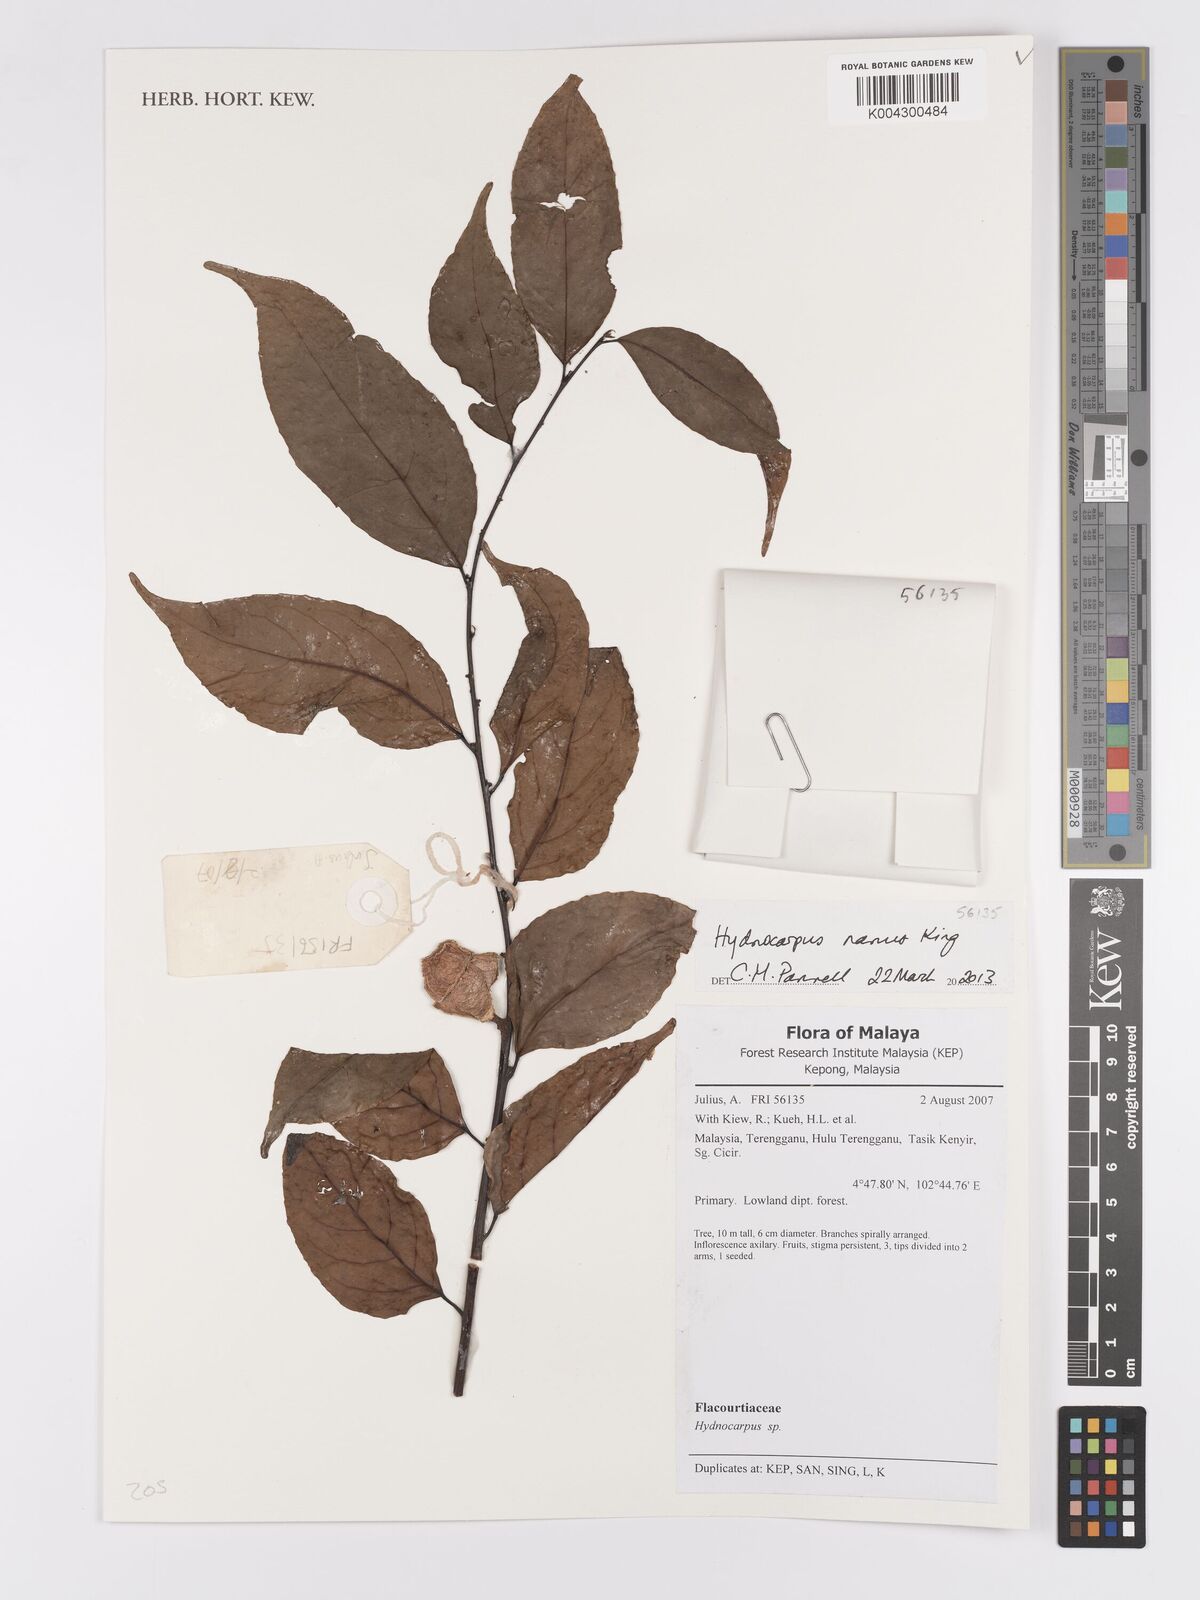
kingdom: Plantae
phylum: Tracheophyta
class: Magnoliopsida
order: Malpighiales
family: Achariaceae
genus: Hydnocarpus
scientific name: Hydnocarpus nanus
